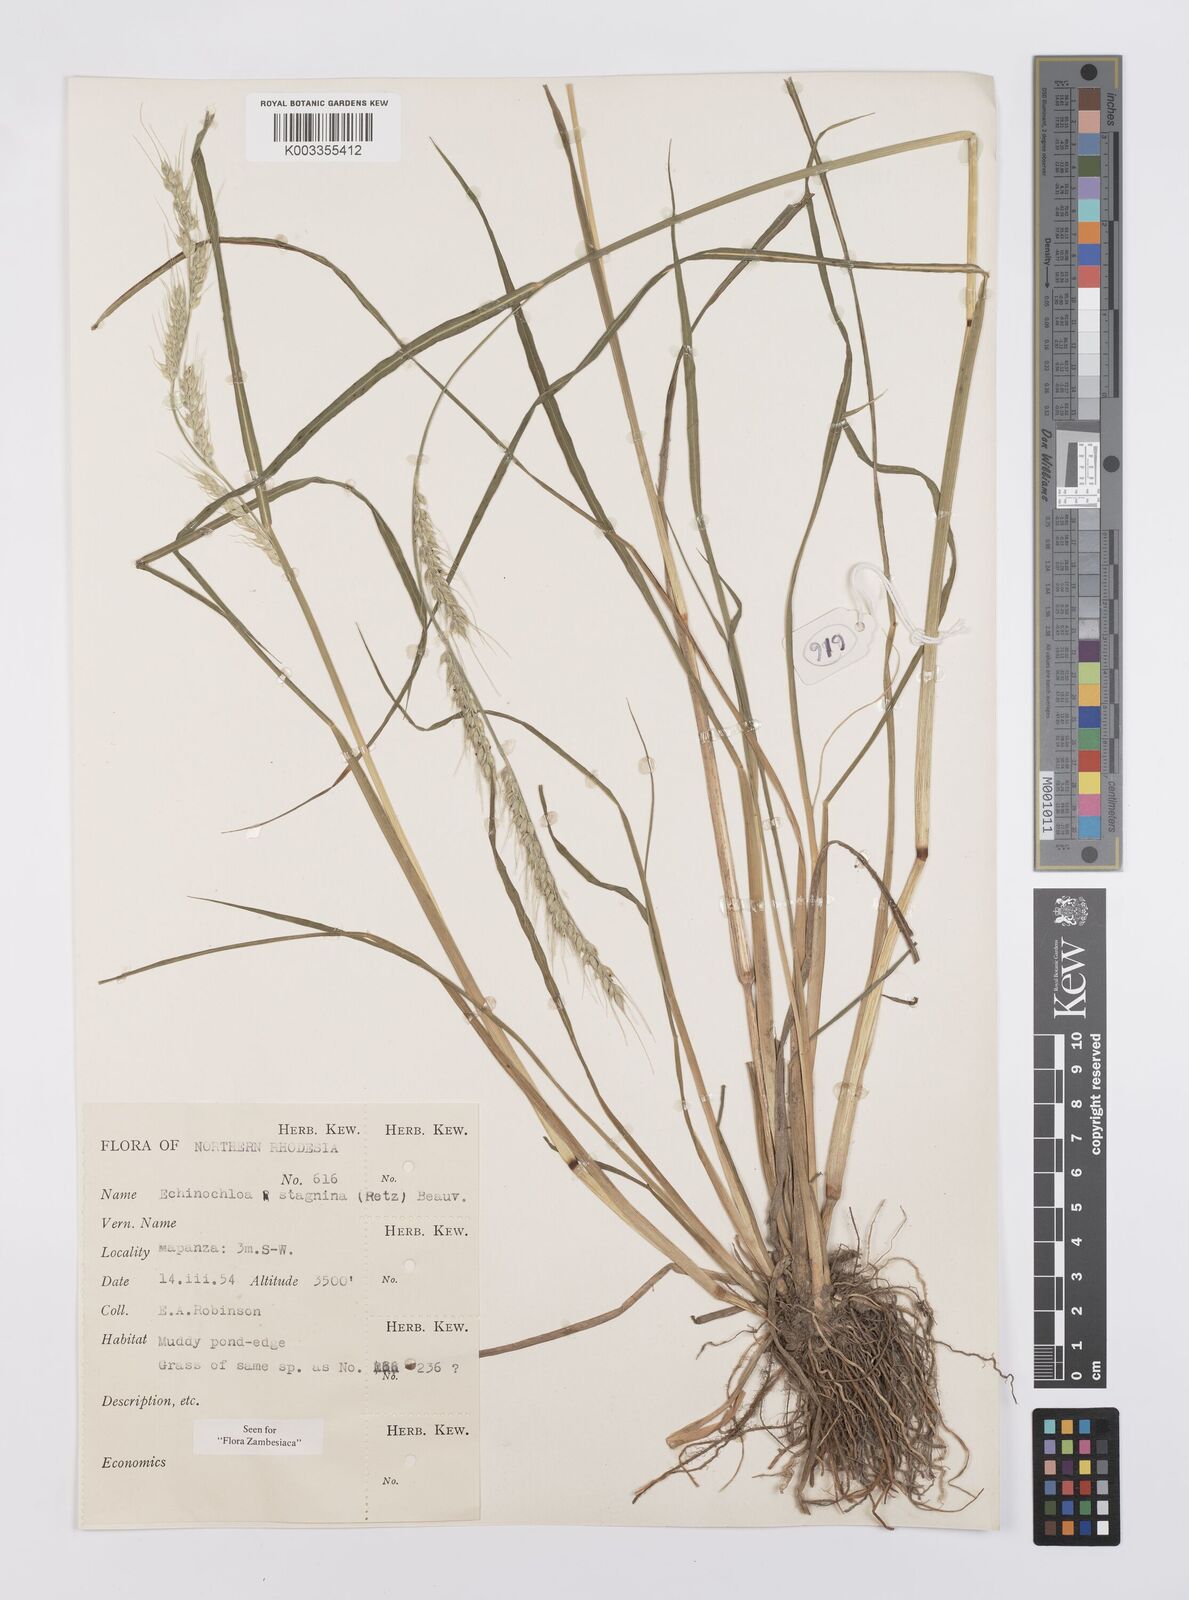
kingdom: Plantae
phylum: Tracheophyta
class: Liliopsida
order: Poales
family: Poaceae
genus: Echinochloa
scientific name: Echinochloa stagnina
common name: Burgu grass
